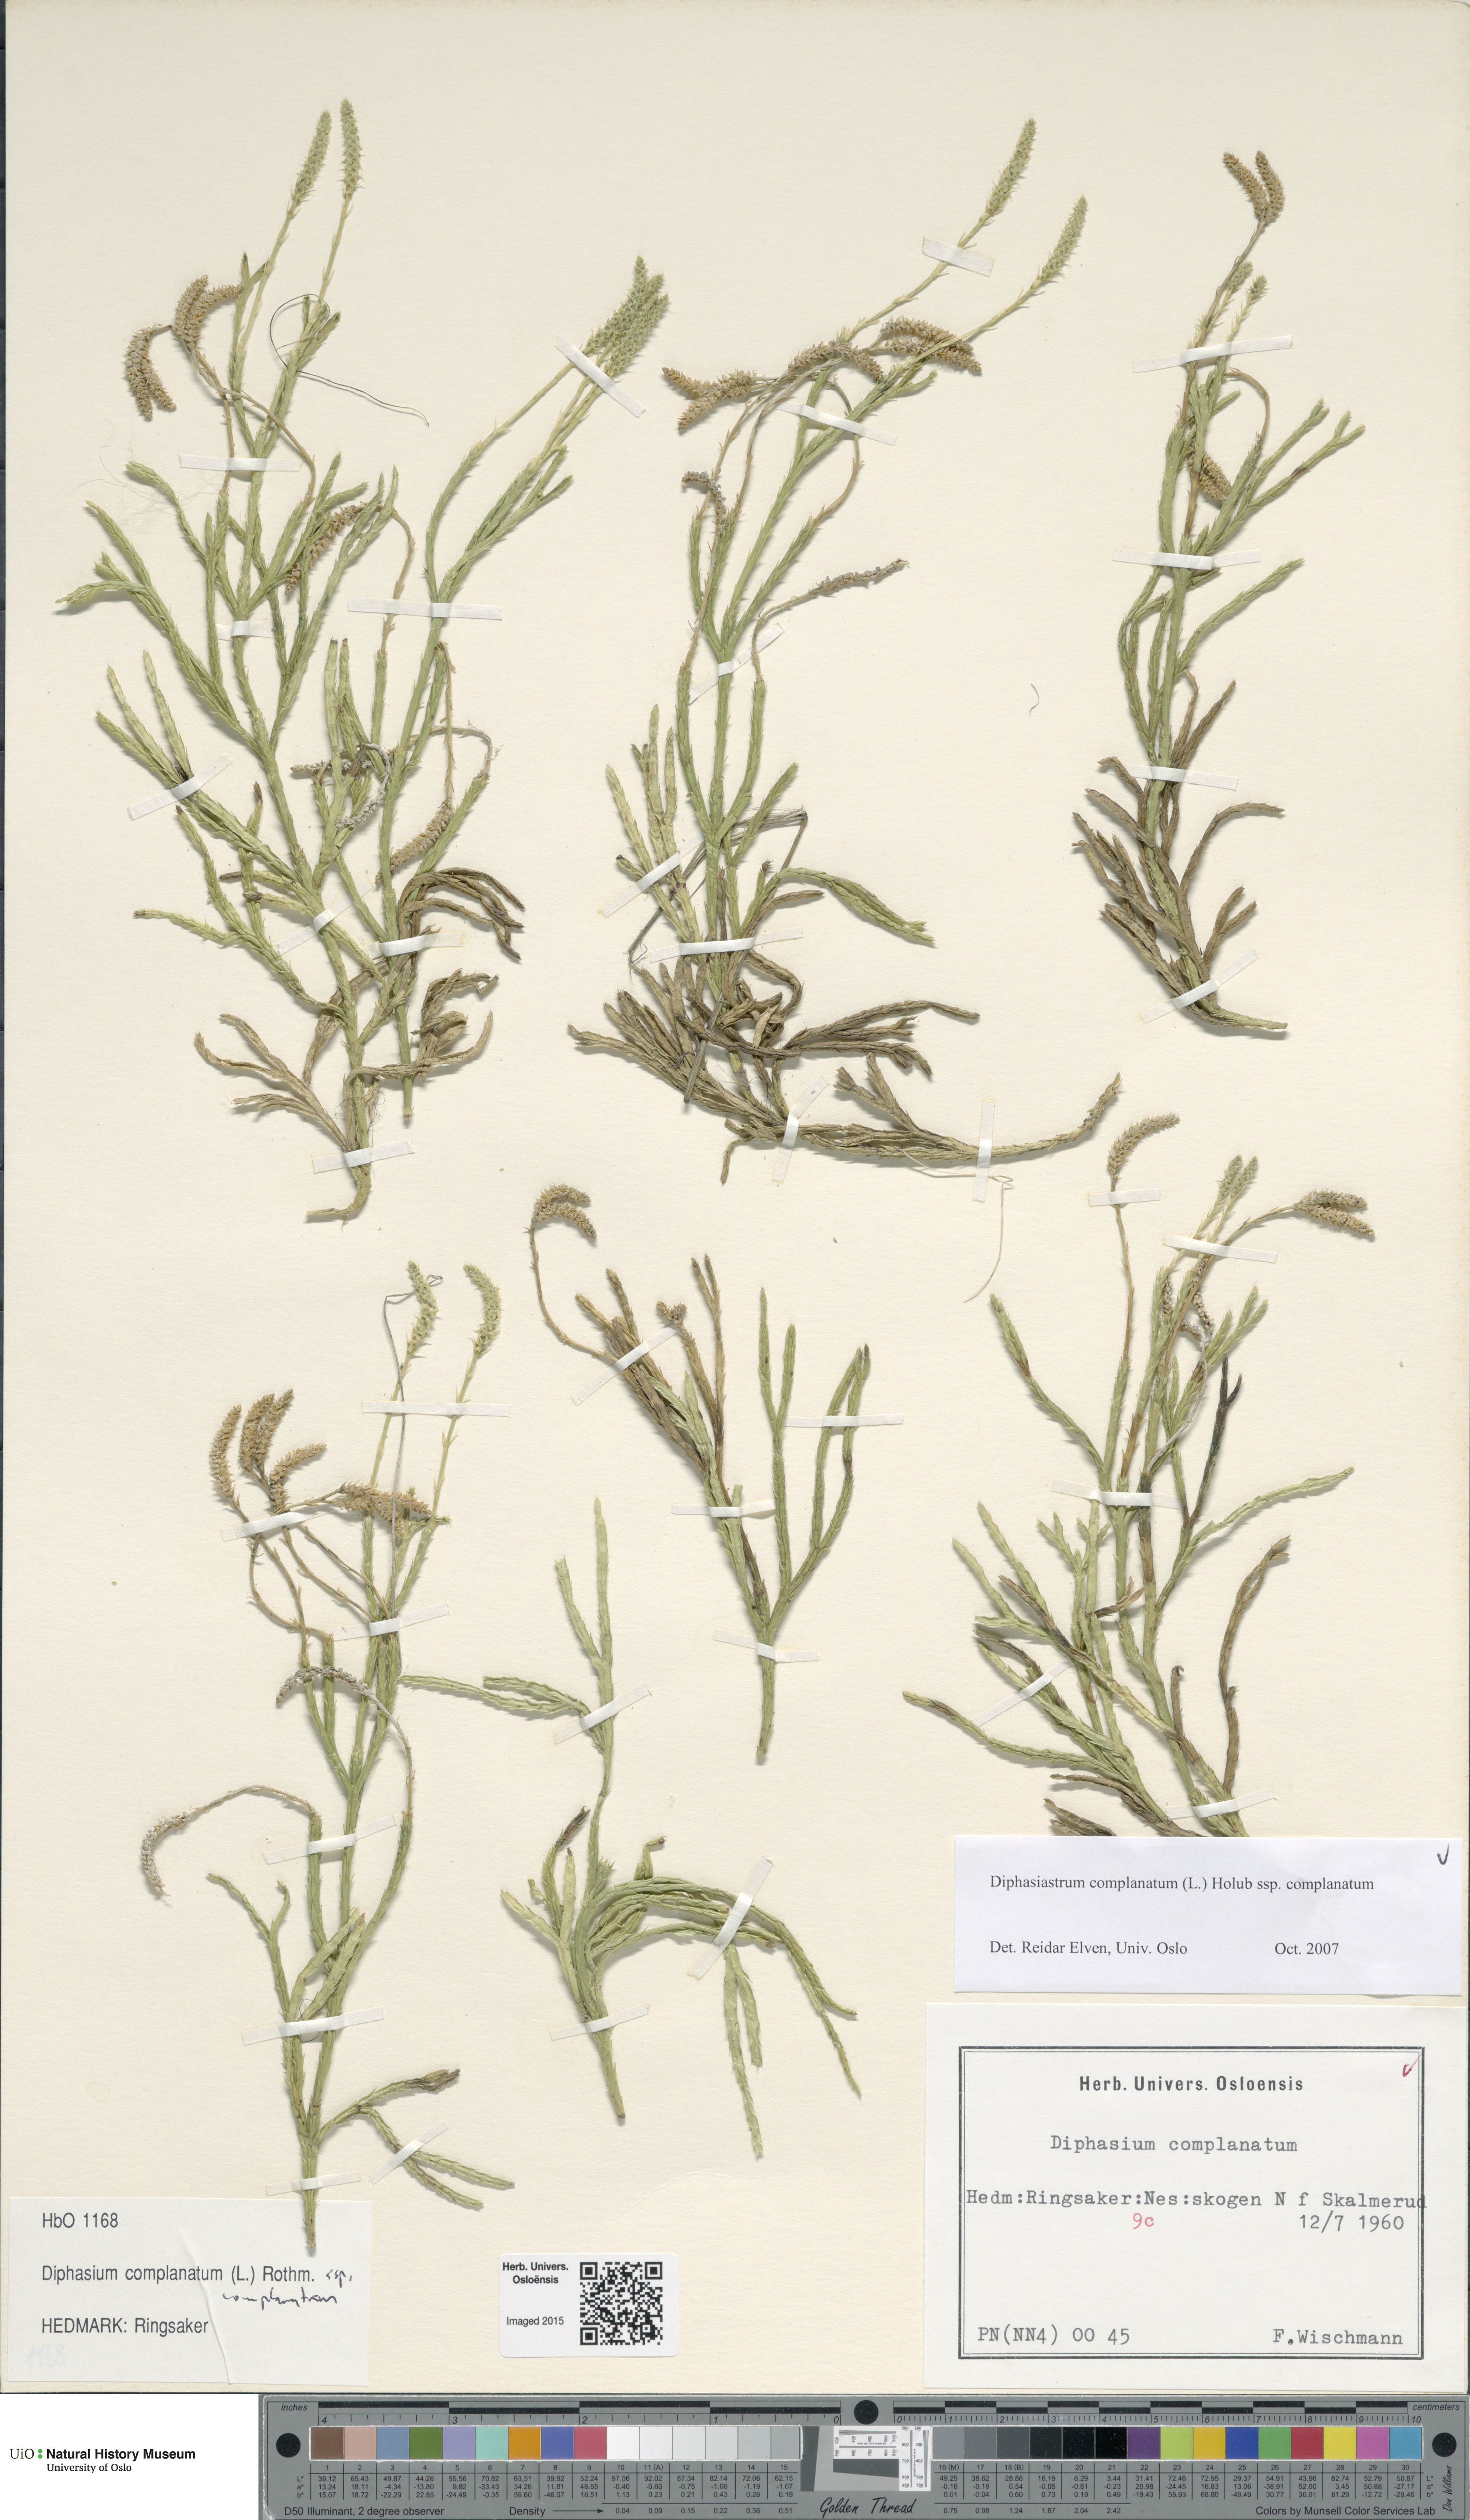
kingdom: Plantae
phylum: Tracheophyta
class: Lycopodiopsida
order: Lycopodiales
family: Lycopodiaceae
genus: Diphasiastrum
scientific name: Diphasiastrum complanatum
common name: Northern running-pine
